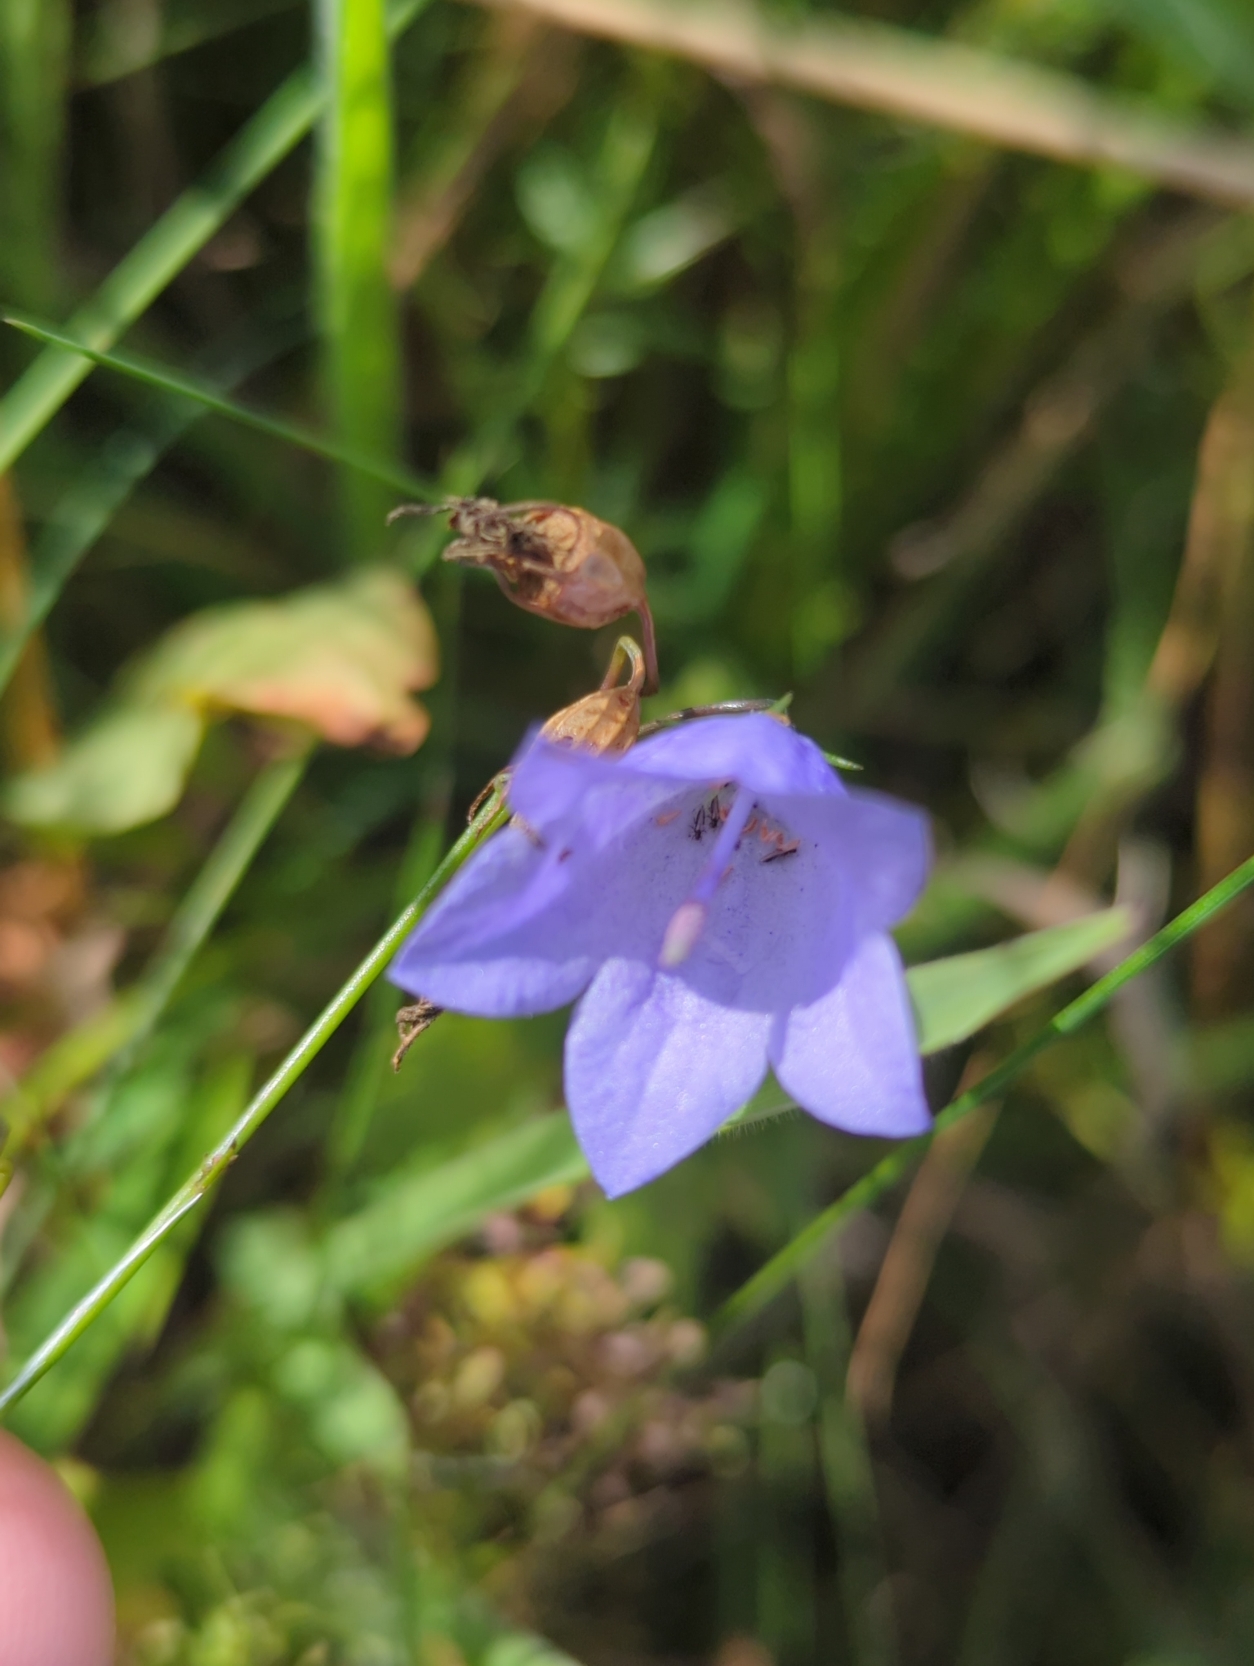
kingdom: Plantae
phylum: Tracheophyta
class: Magnoliopsida
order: Asterales
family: Campanulaceae
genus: Campanula
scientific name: Campanula rotundifolia
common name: Liden klokke
